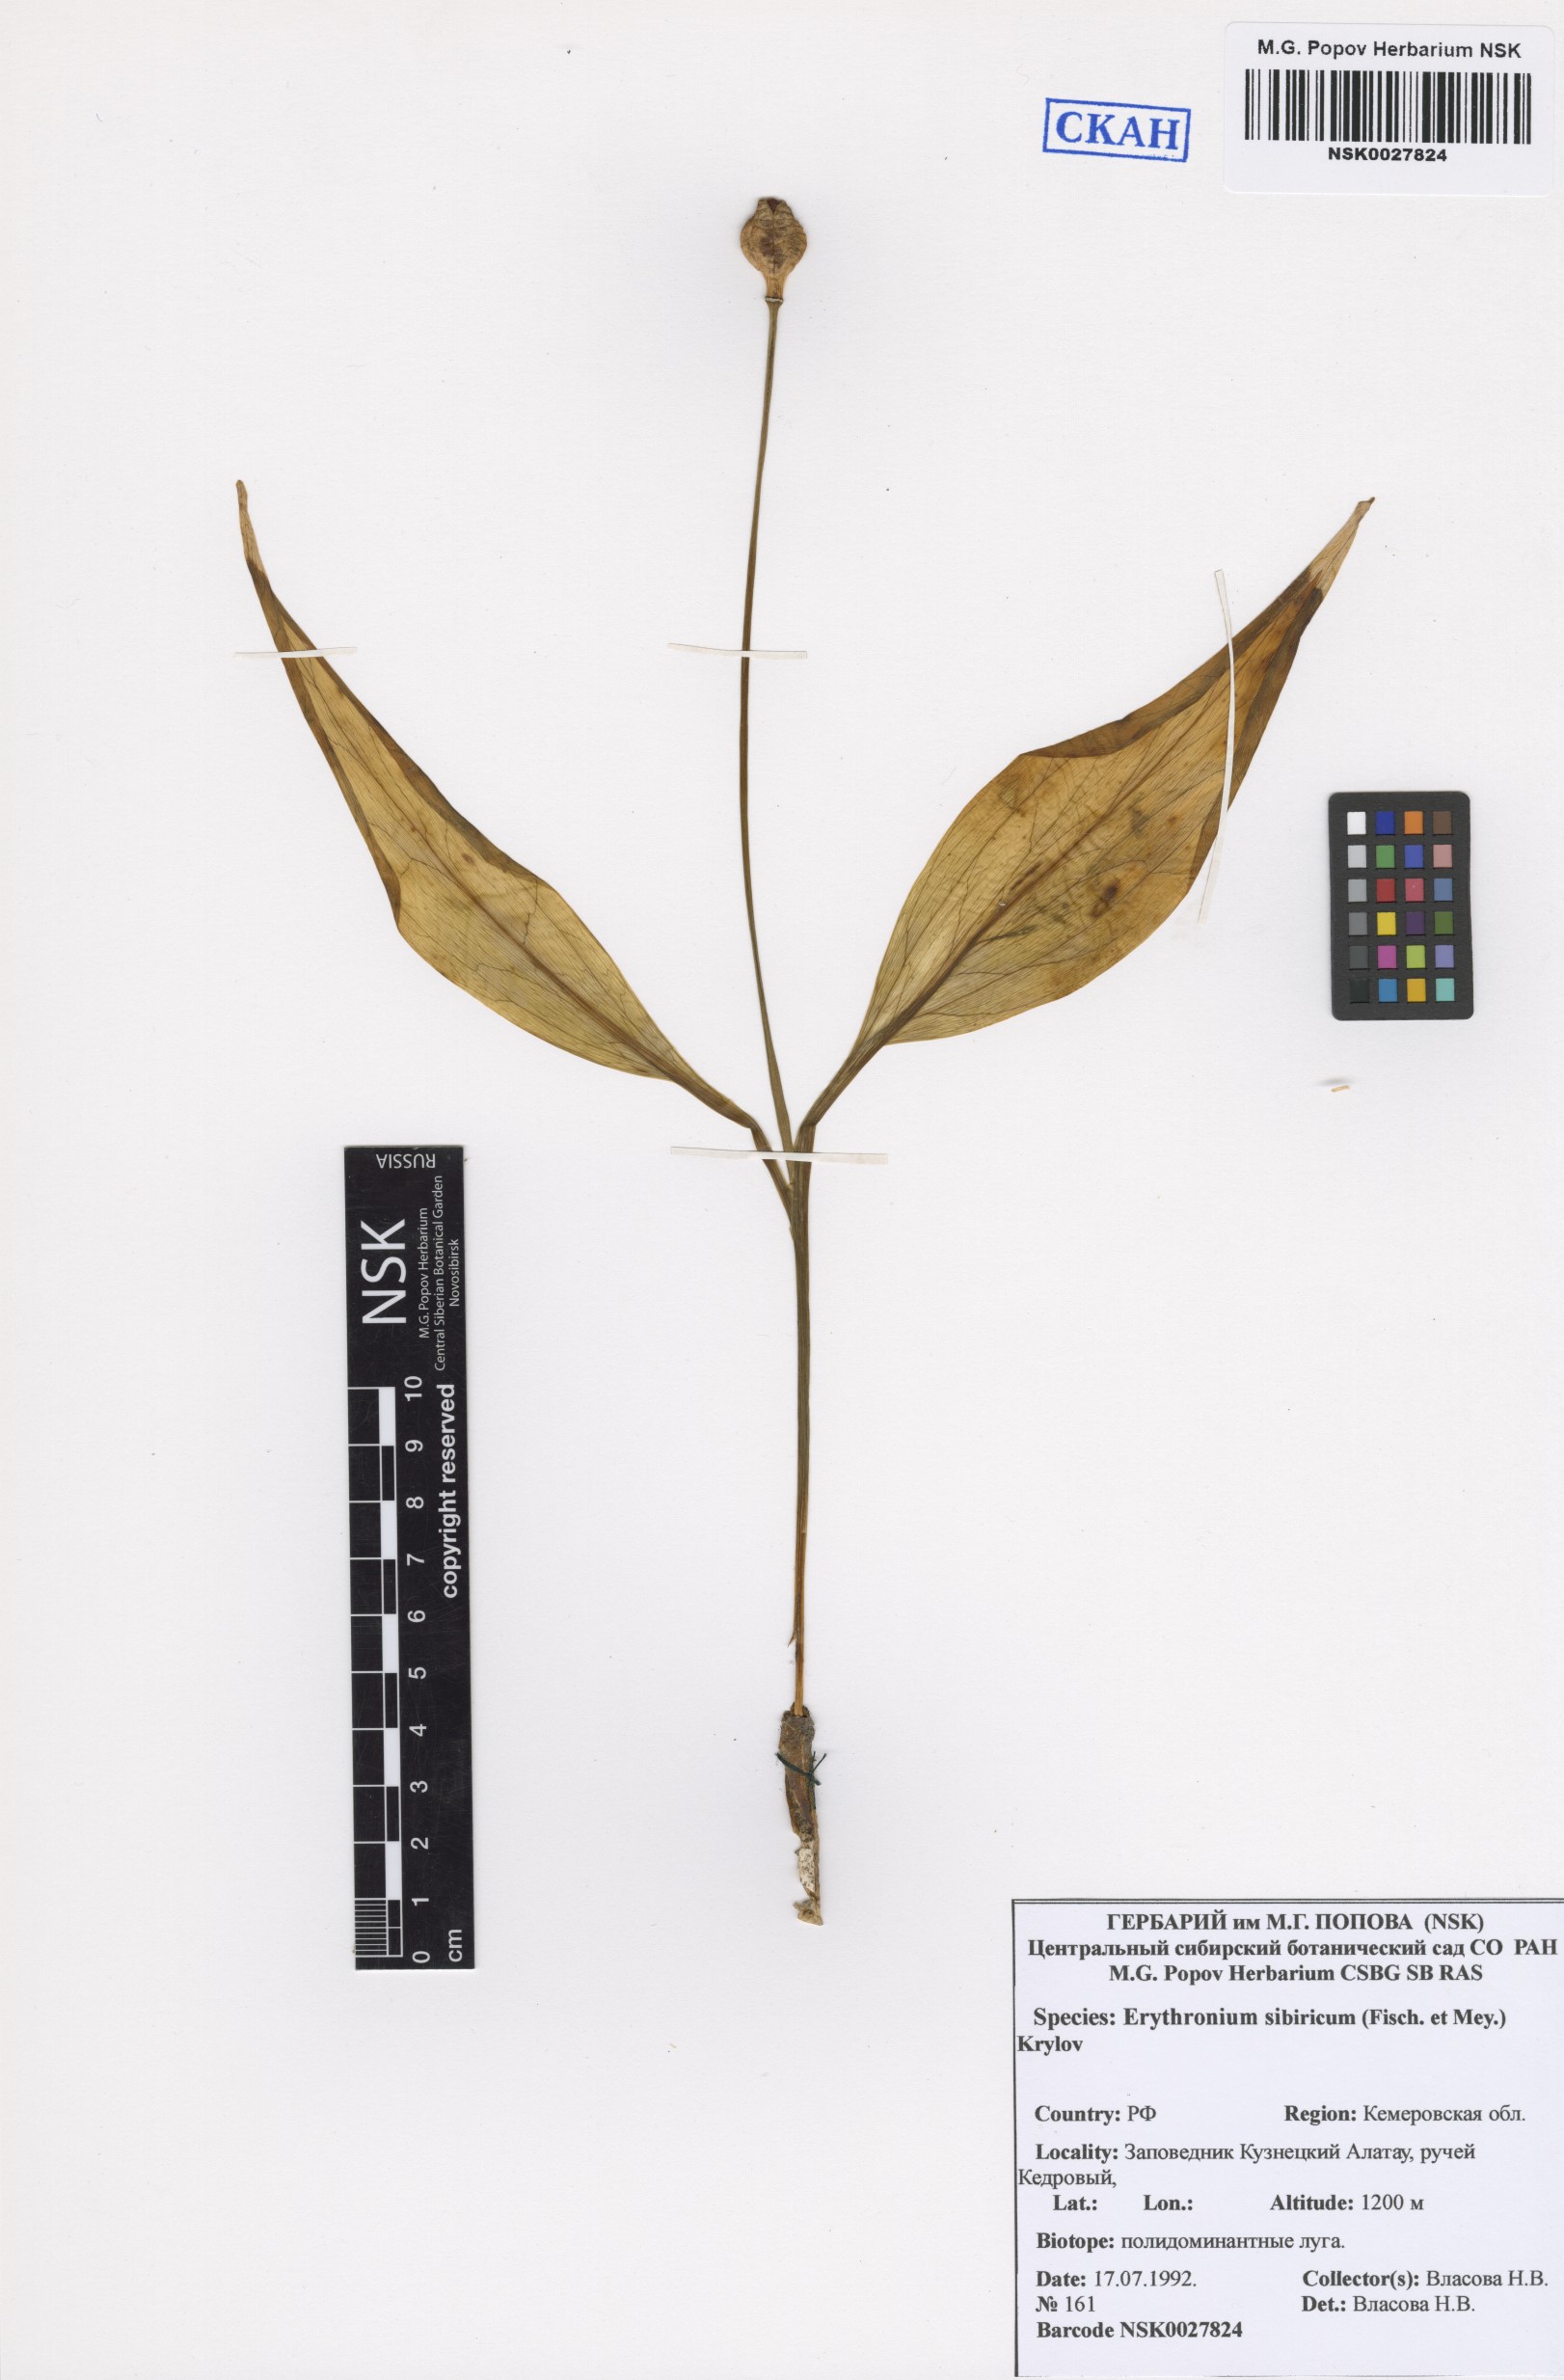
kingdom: Plantae
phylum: Tracheophyta
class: Liliopsida
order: Liliales
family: Liliaceae
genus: Erythronium
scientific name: Erythronium sibiricum
